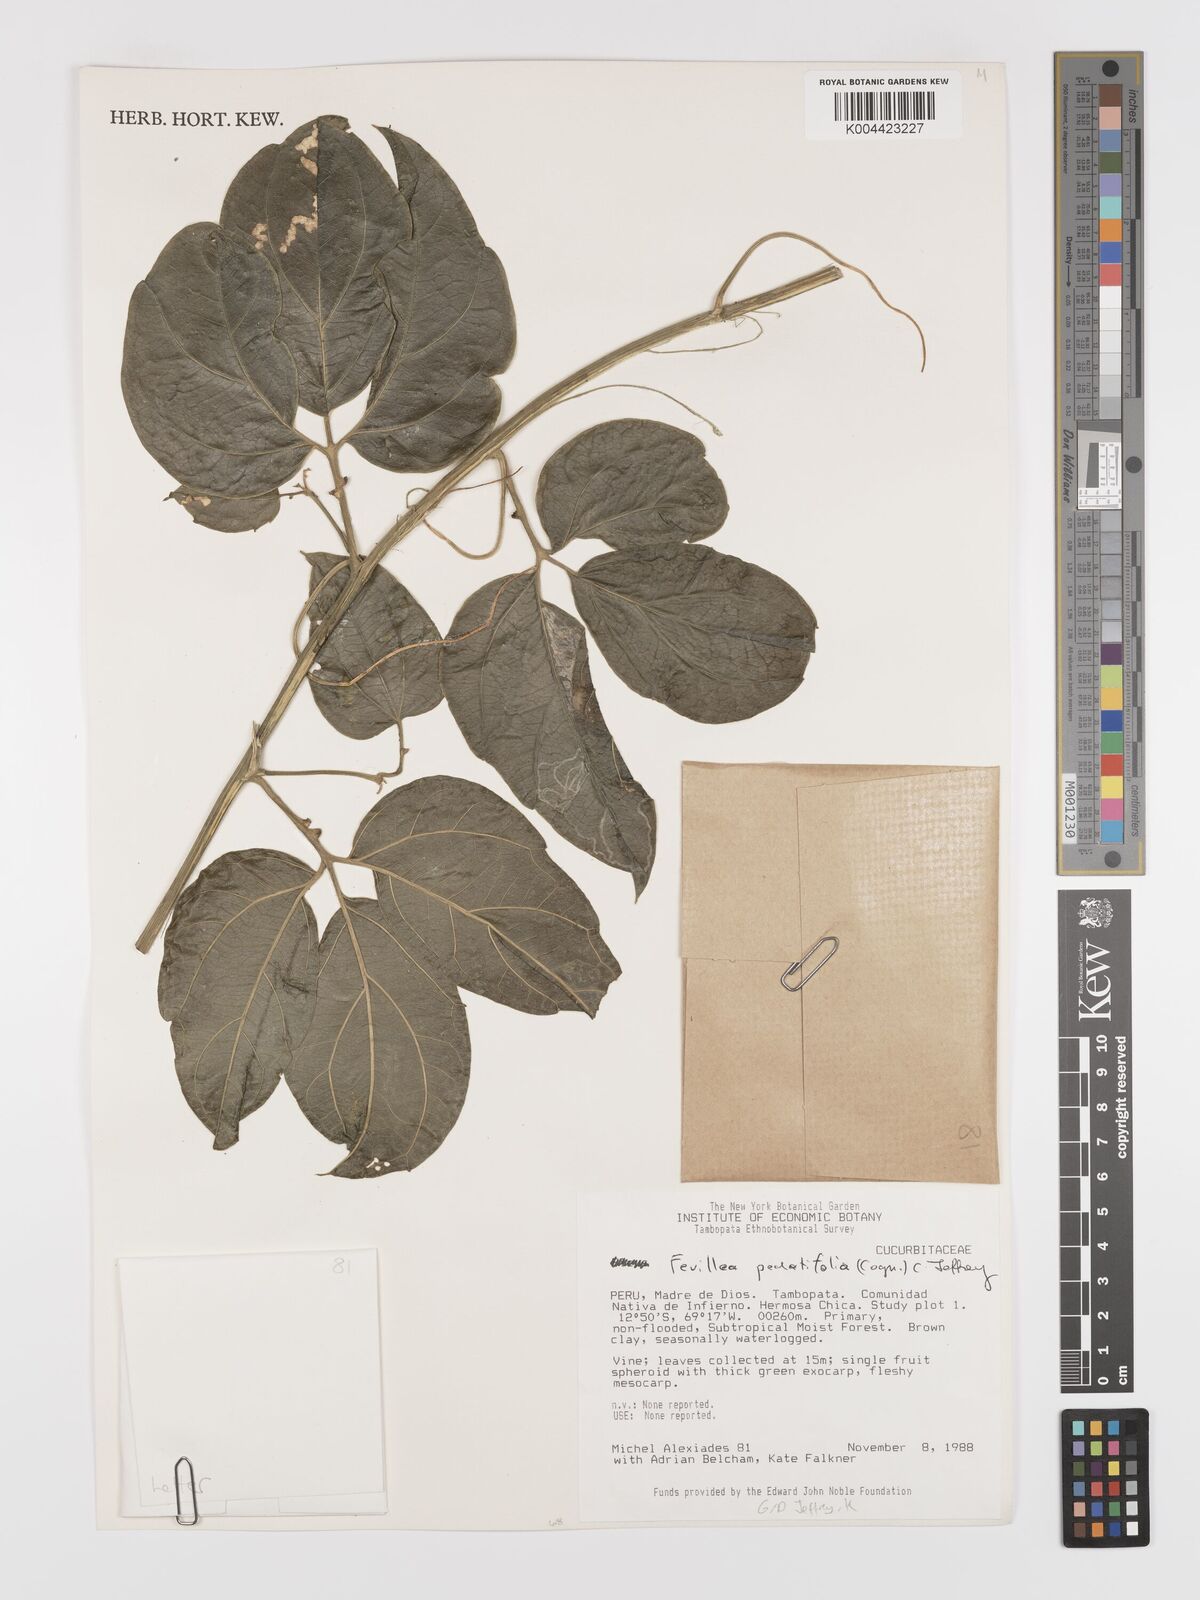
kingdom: Plantae
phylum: Tracheophyta
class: Magnoliopsida
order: Cucurbitales
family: Cucurbitaceae
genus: Fevillea
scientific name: Fevillea pedatifolia
